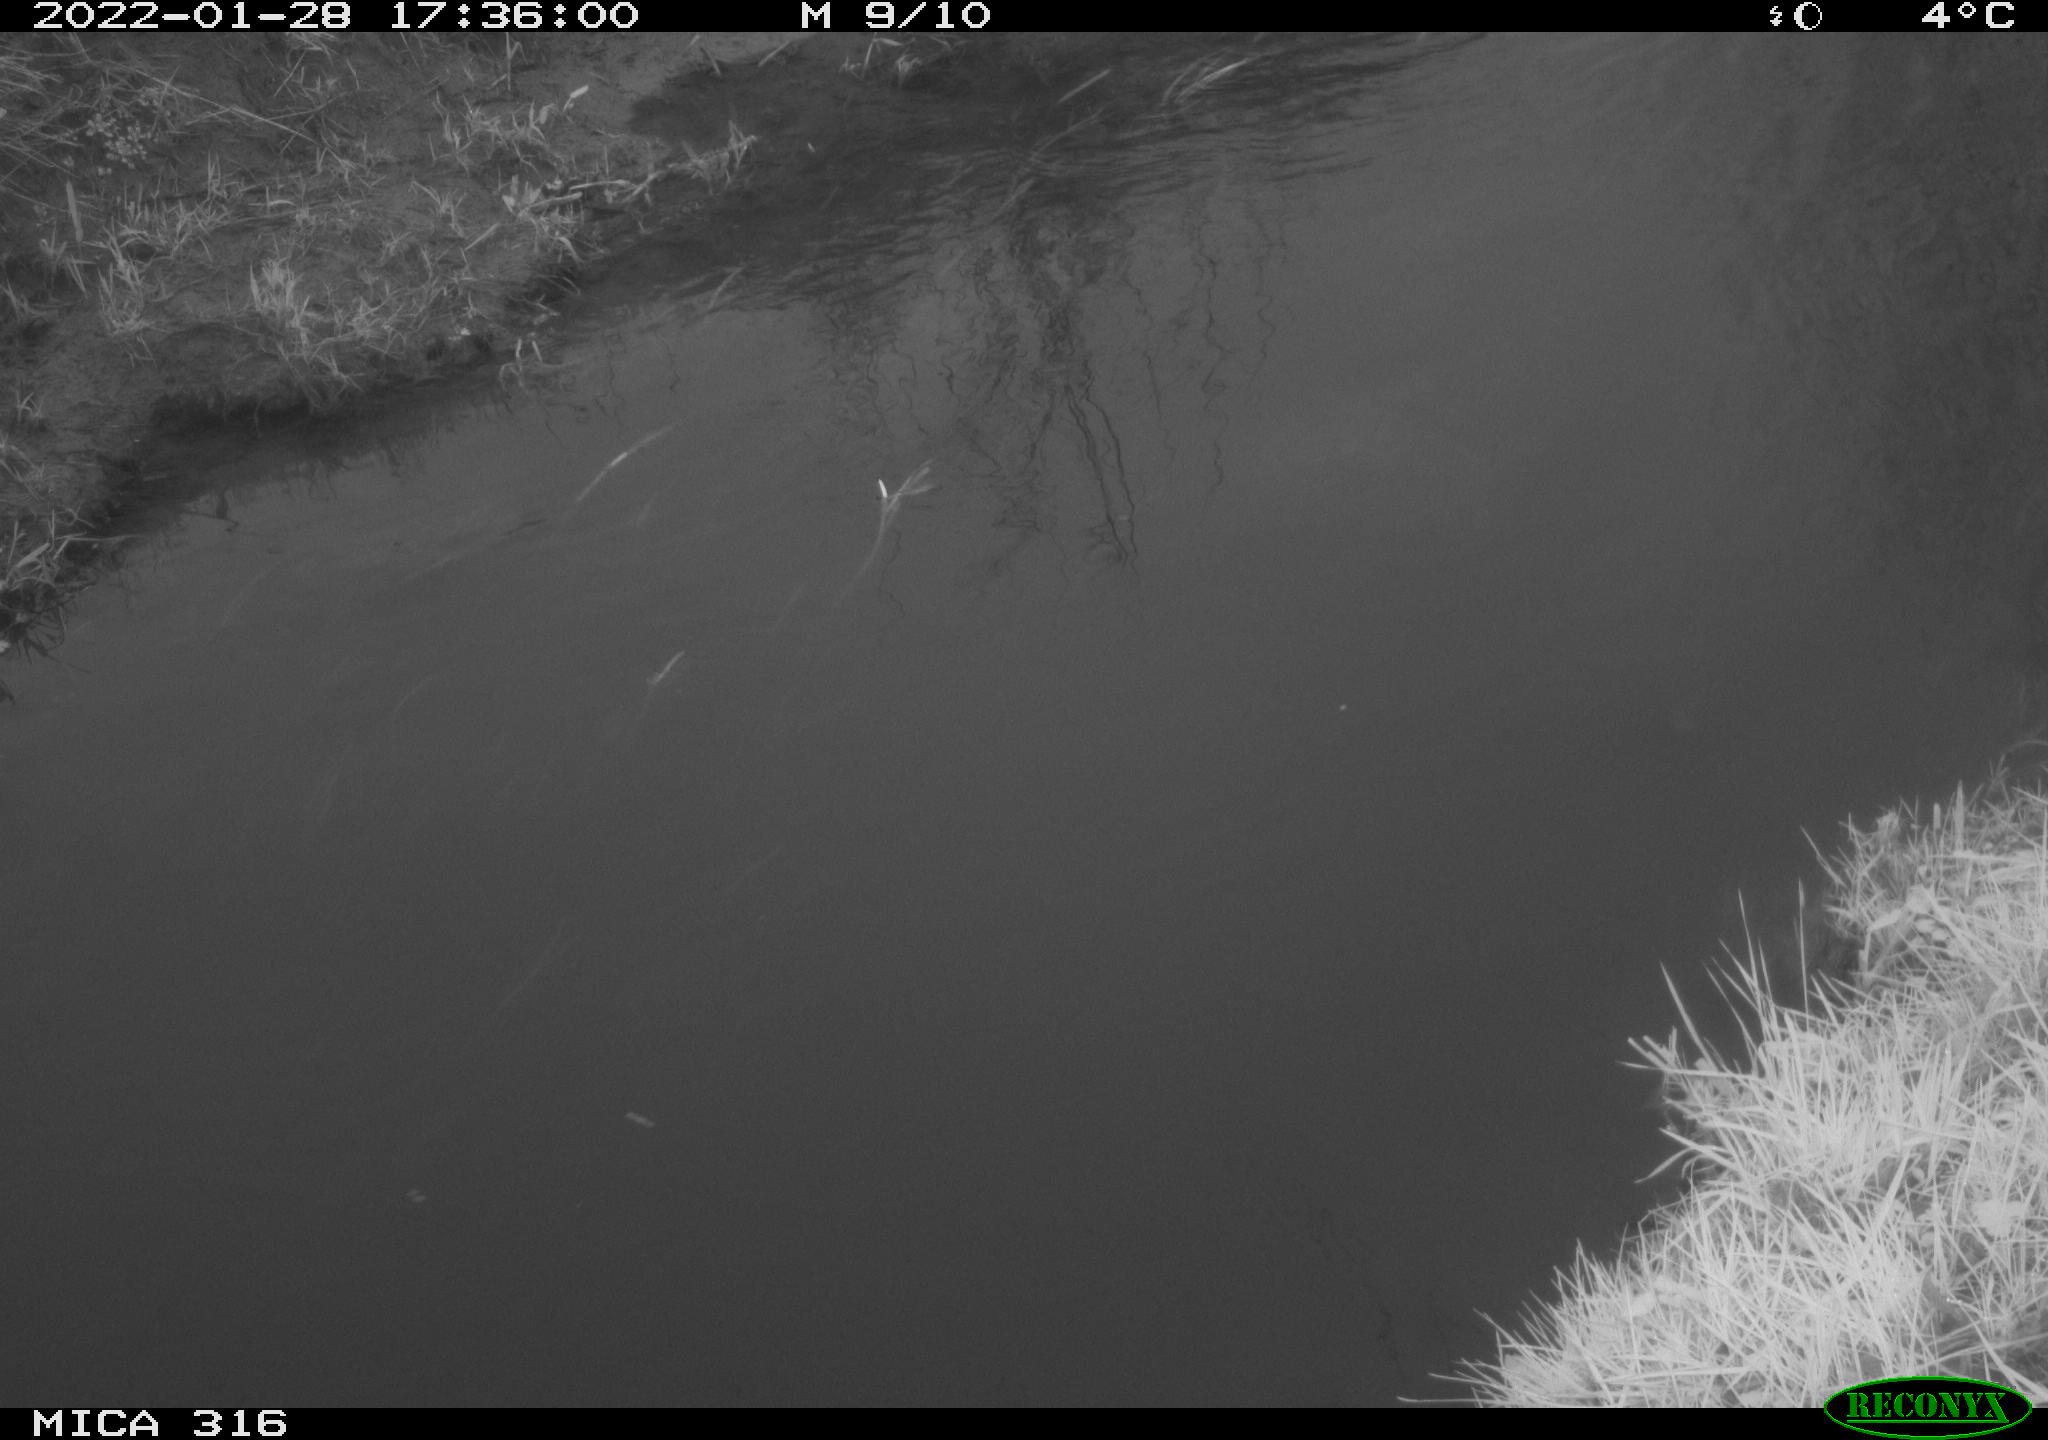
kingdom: Animalia
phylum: Chordata
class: Aves
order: Gruiformes
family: Rallidae
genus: Gallinula
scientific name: Gallinula chloropus
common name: Common moorhen
